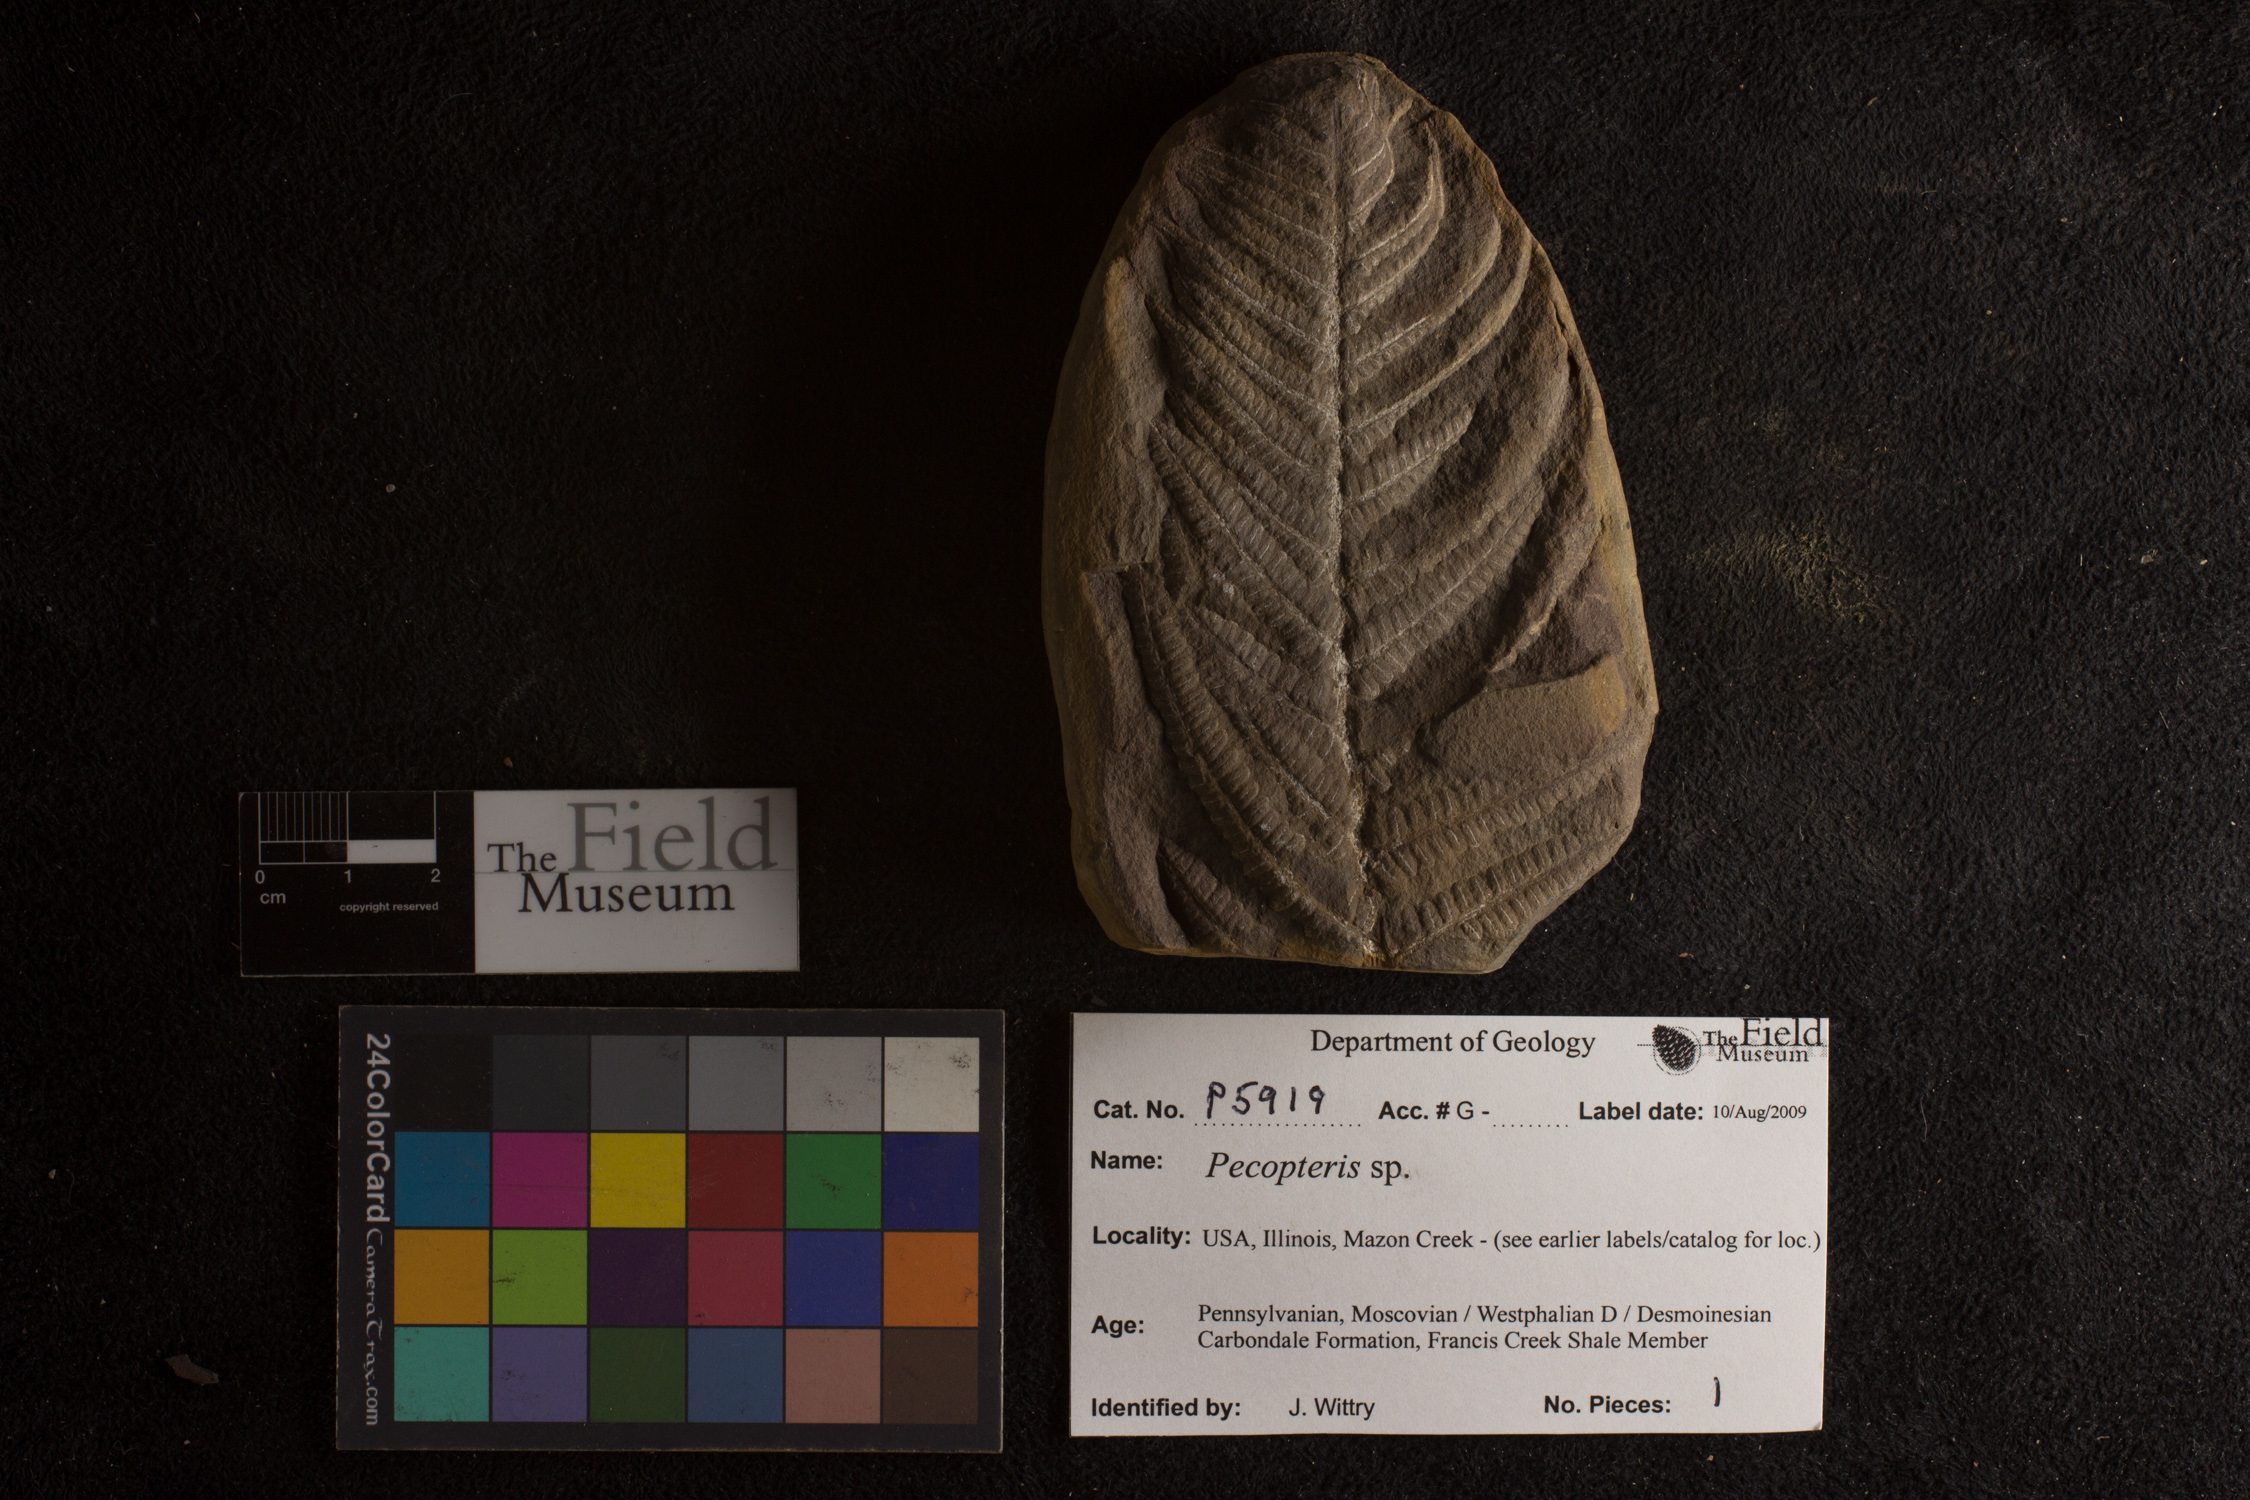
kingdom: Plantae
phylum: Tracheophyta
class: Polypodiopsida
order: Marattiales
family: Asterothecaceae
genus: Pecopteris
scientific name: Pecopteris
